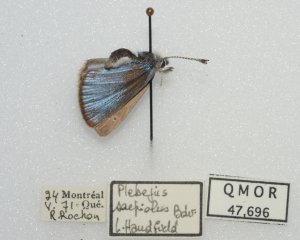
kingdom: Animalia
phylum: Arthropoda
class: Insecta
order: Lepidoptera
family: Lycaenidae
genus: Glaucopsyche
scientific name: Glaucopsyche lygdamus
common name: Silvery Blue
